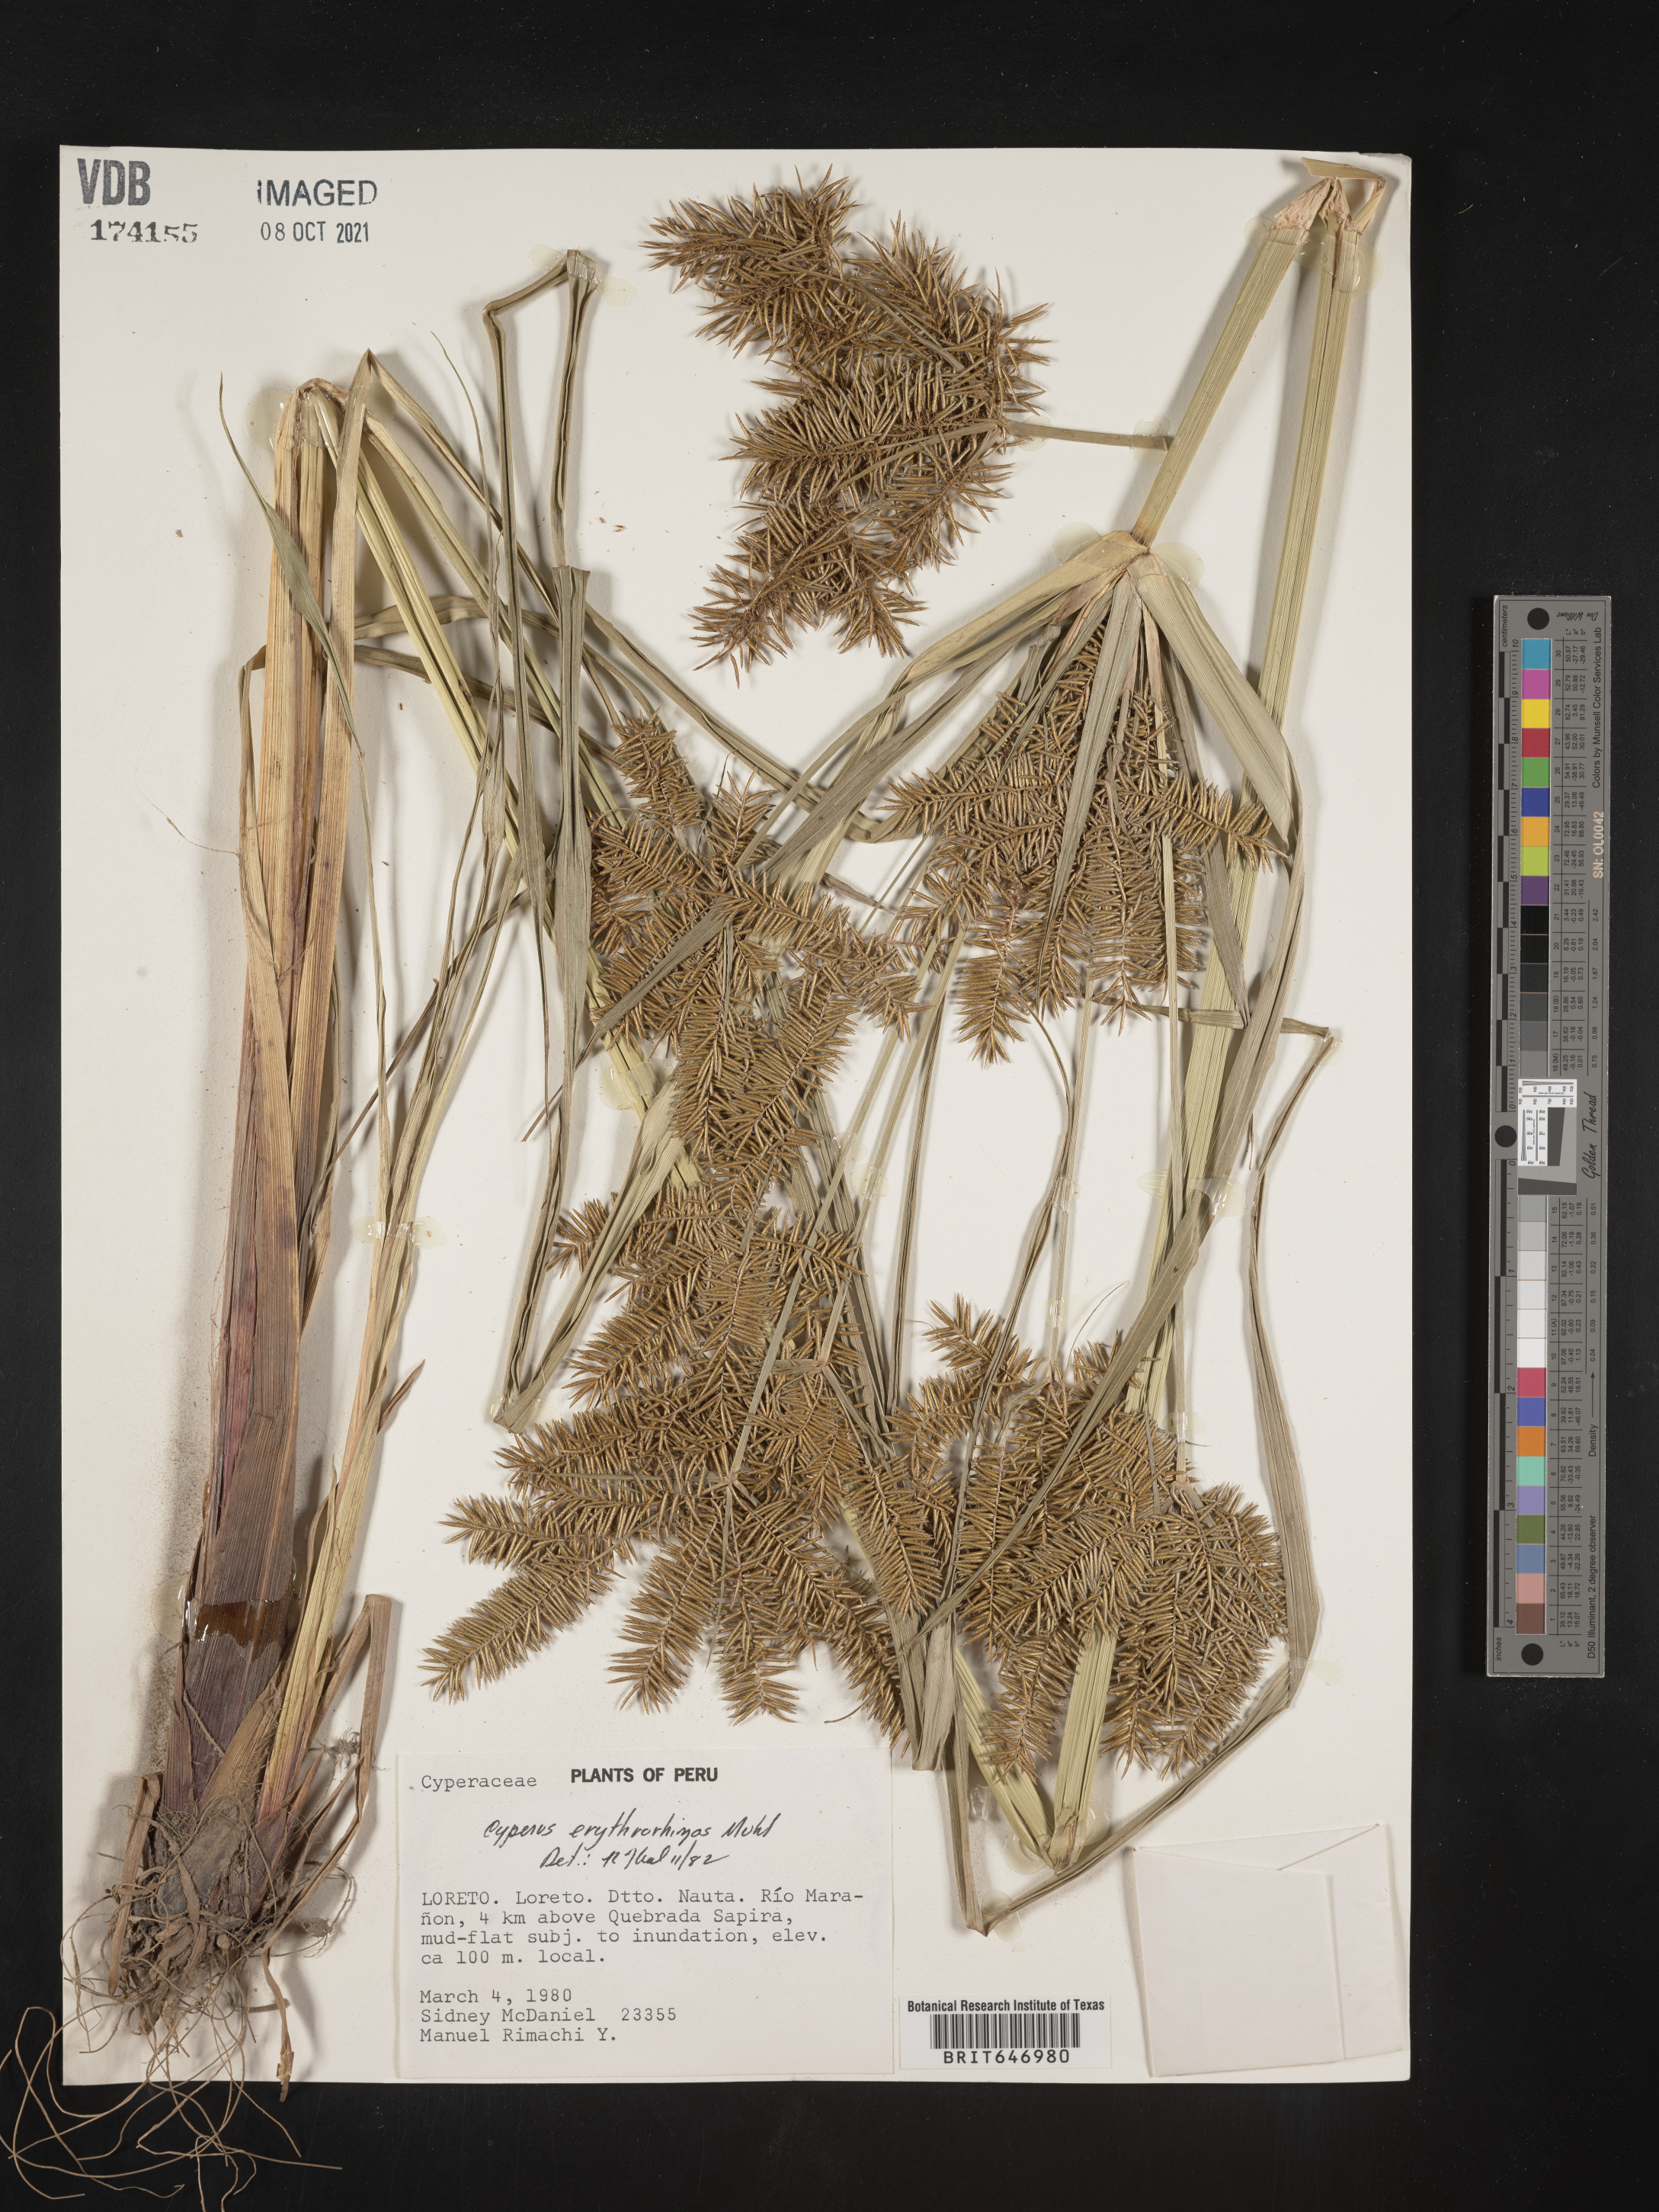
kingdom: Plantae
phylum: Tracheophyta
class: Liliopsida
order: Poales
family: Cyperaceae
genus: Cyperus
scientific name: Cyperus erythrorhizos
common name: Red-root flat sedge
